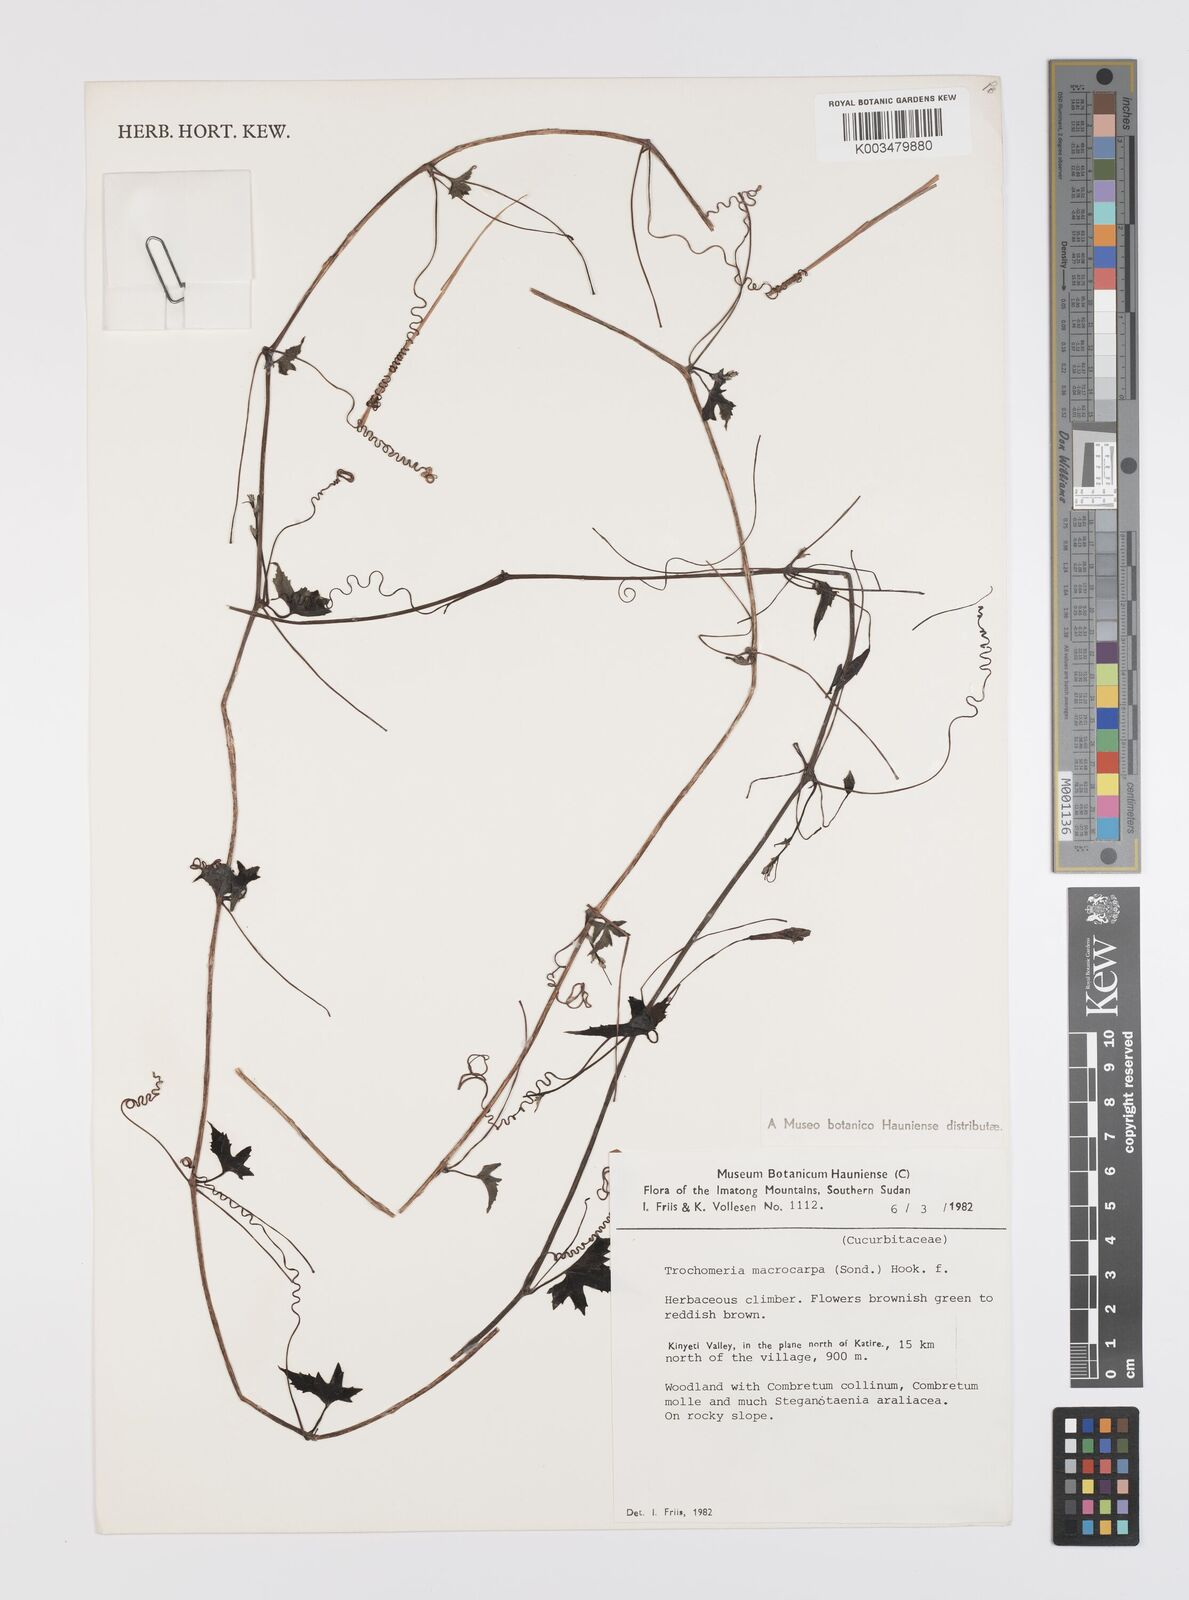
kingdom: Plantae
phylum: Tracheophyta
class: Magnoliopsida
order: Cucurbitales
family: Cucurbitaceae
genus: Trochomeria
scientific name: Trochomeria macrocarpa
